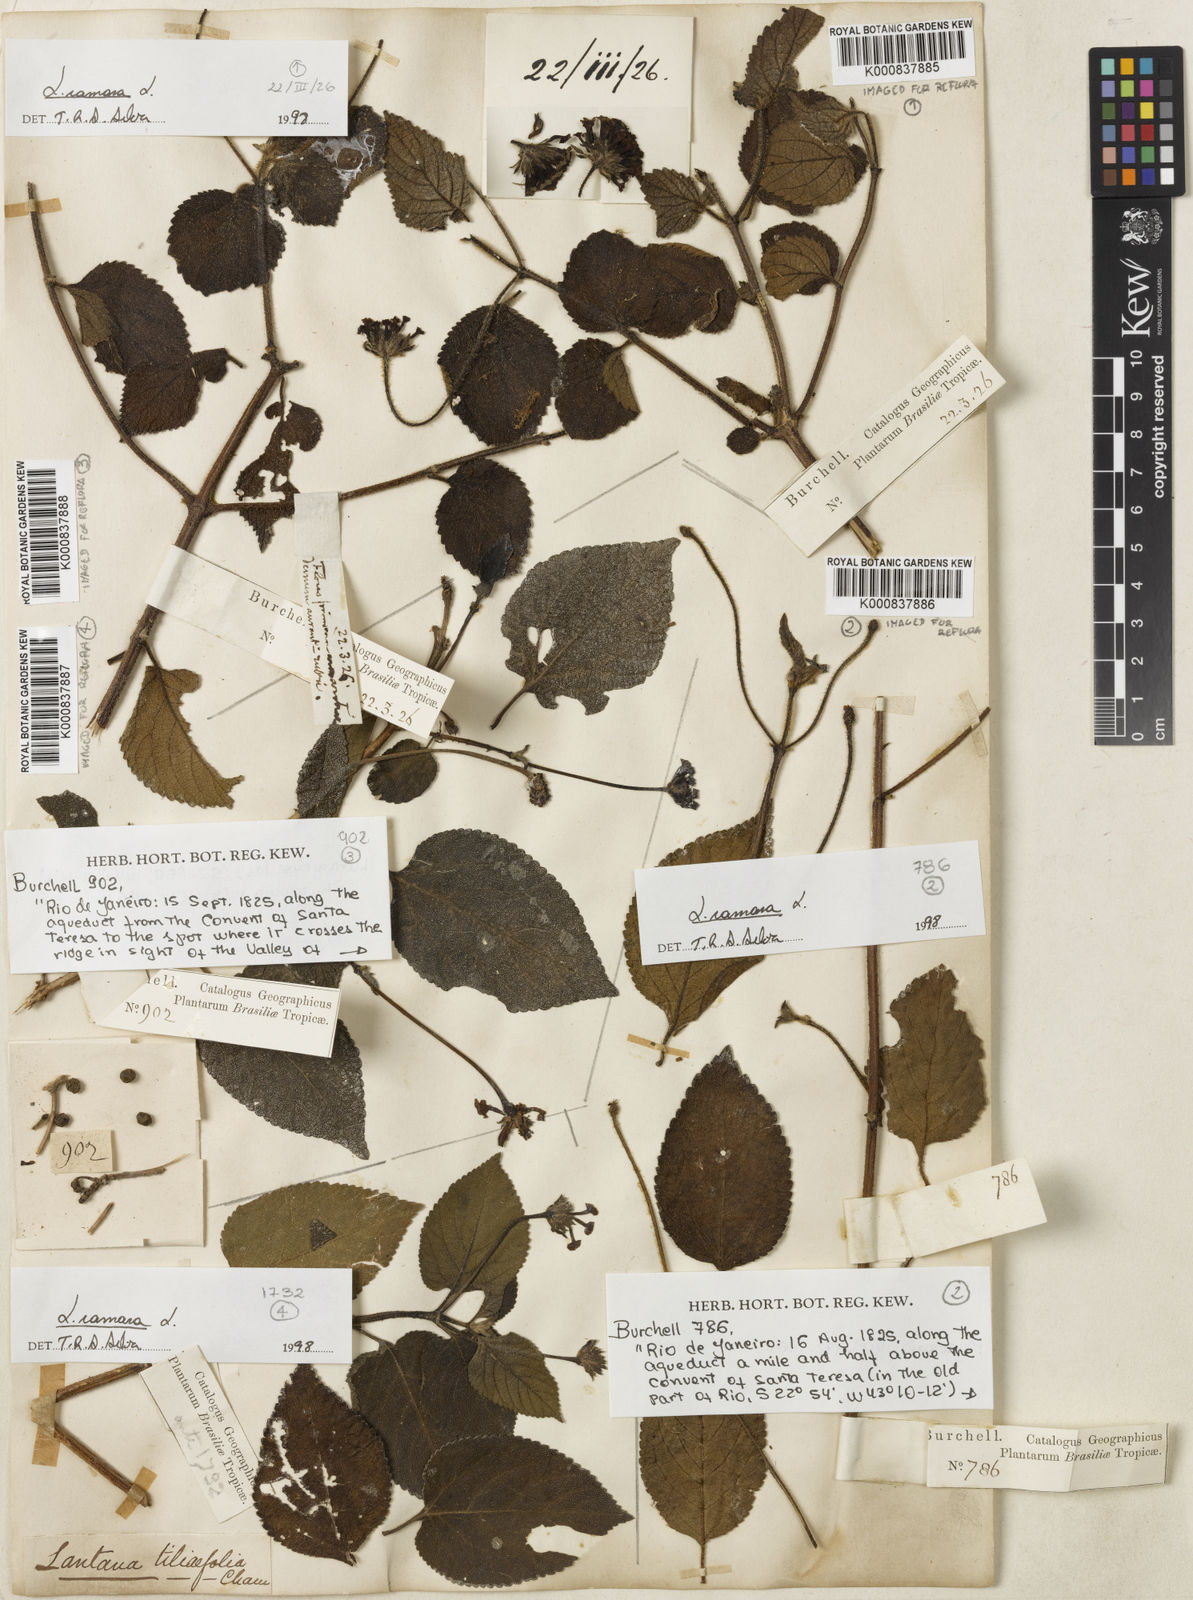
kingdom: Plantae
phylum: Tracheophyta
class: Magnoliopsida
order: Lamiales
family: Verbenaceae
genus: Lantana
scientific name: Lantana camara
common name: Lantana
